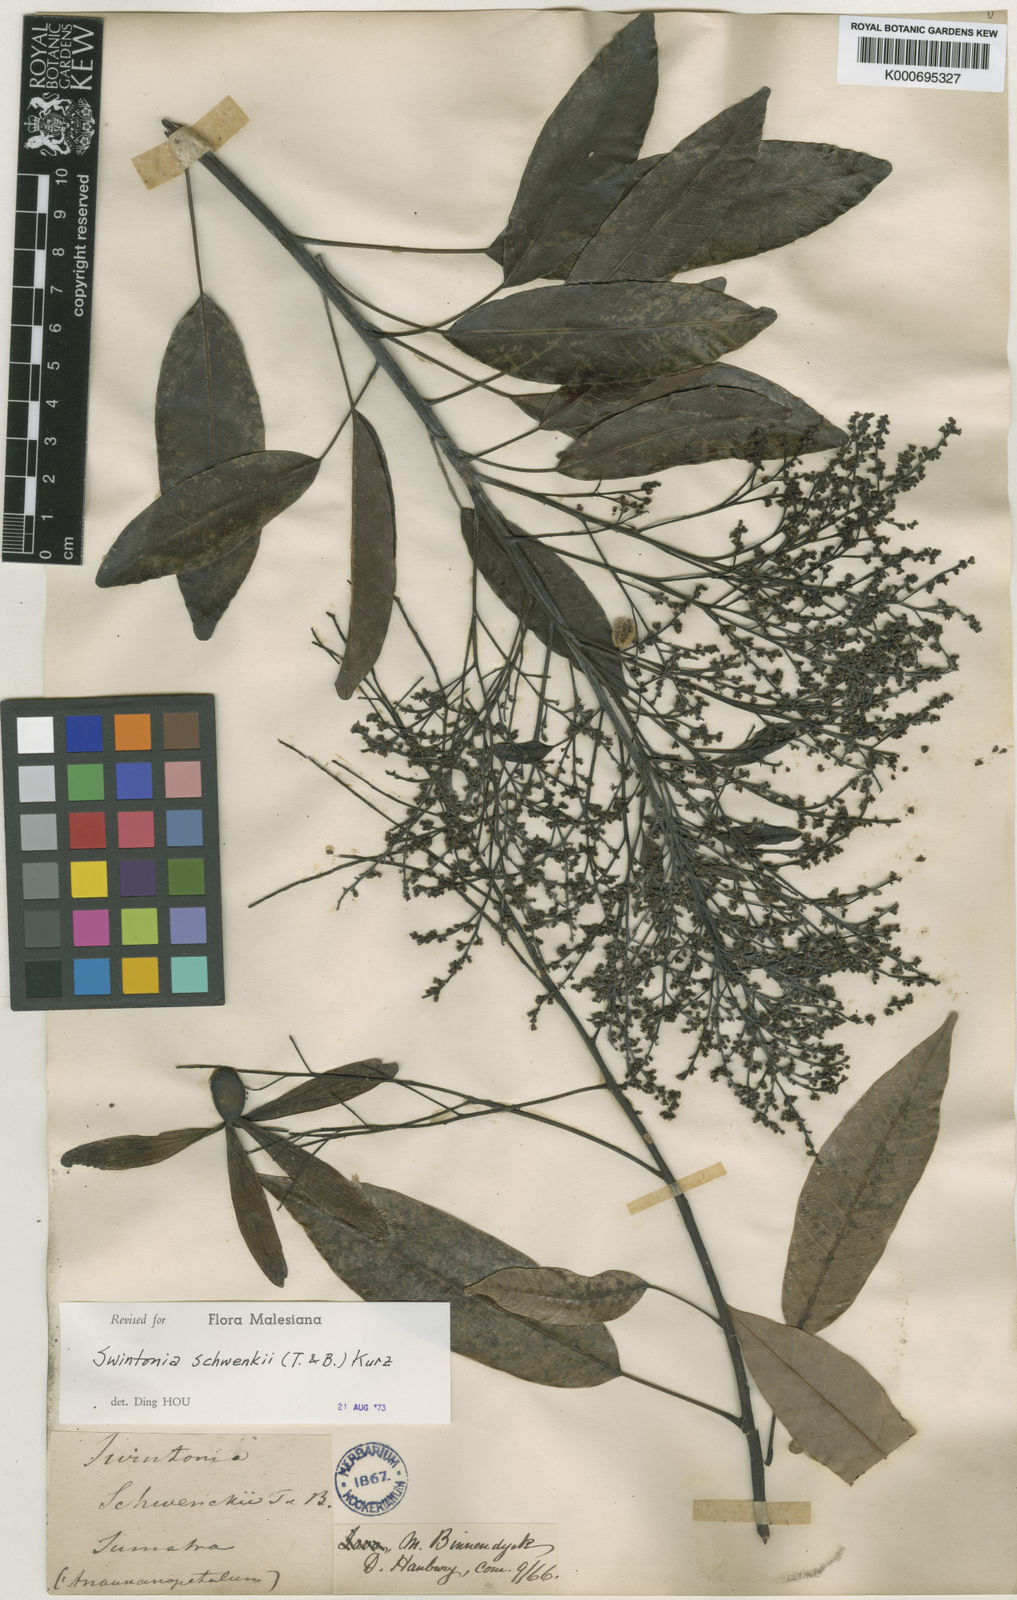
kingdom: Plantae
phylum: Tracheophyta
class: Magnoliopsida
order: Sapindales
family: Anacardiaceae
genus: Swintonia
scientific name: Swintonia
